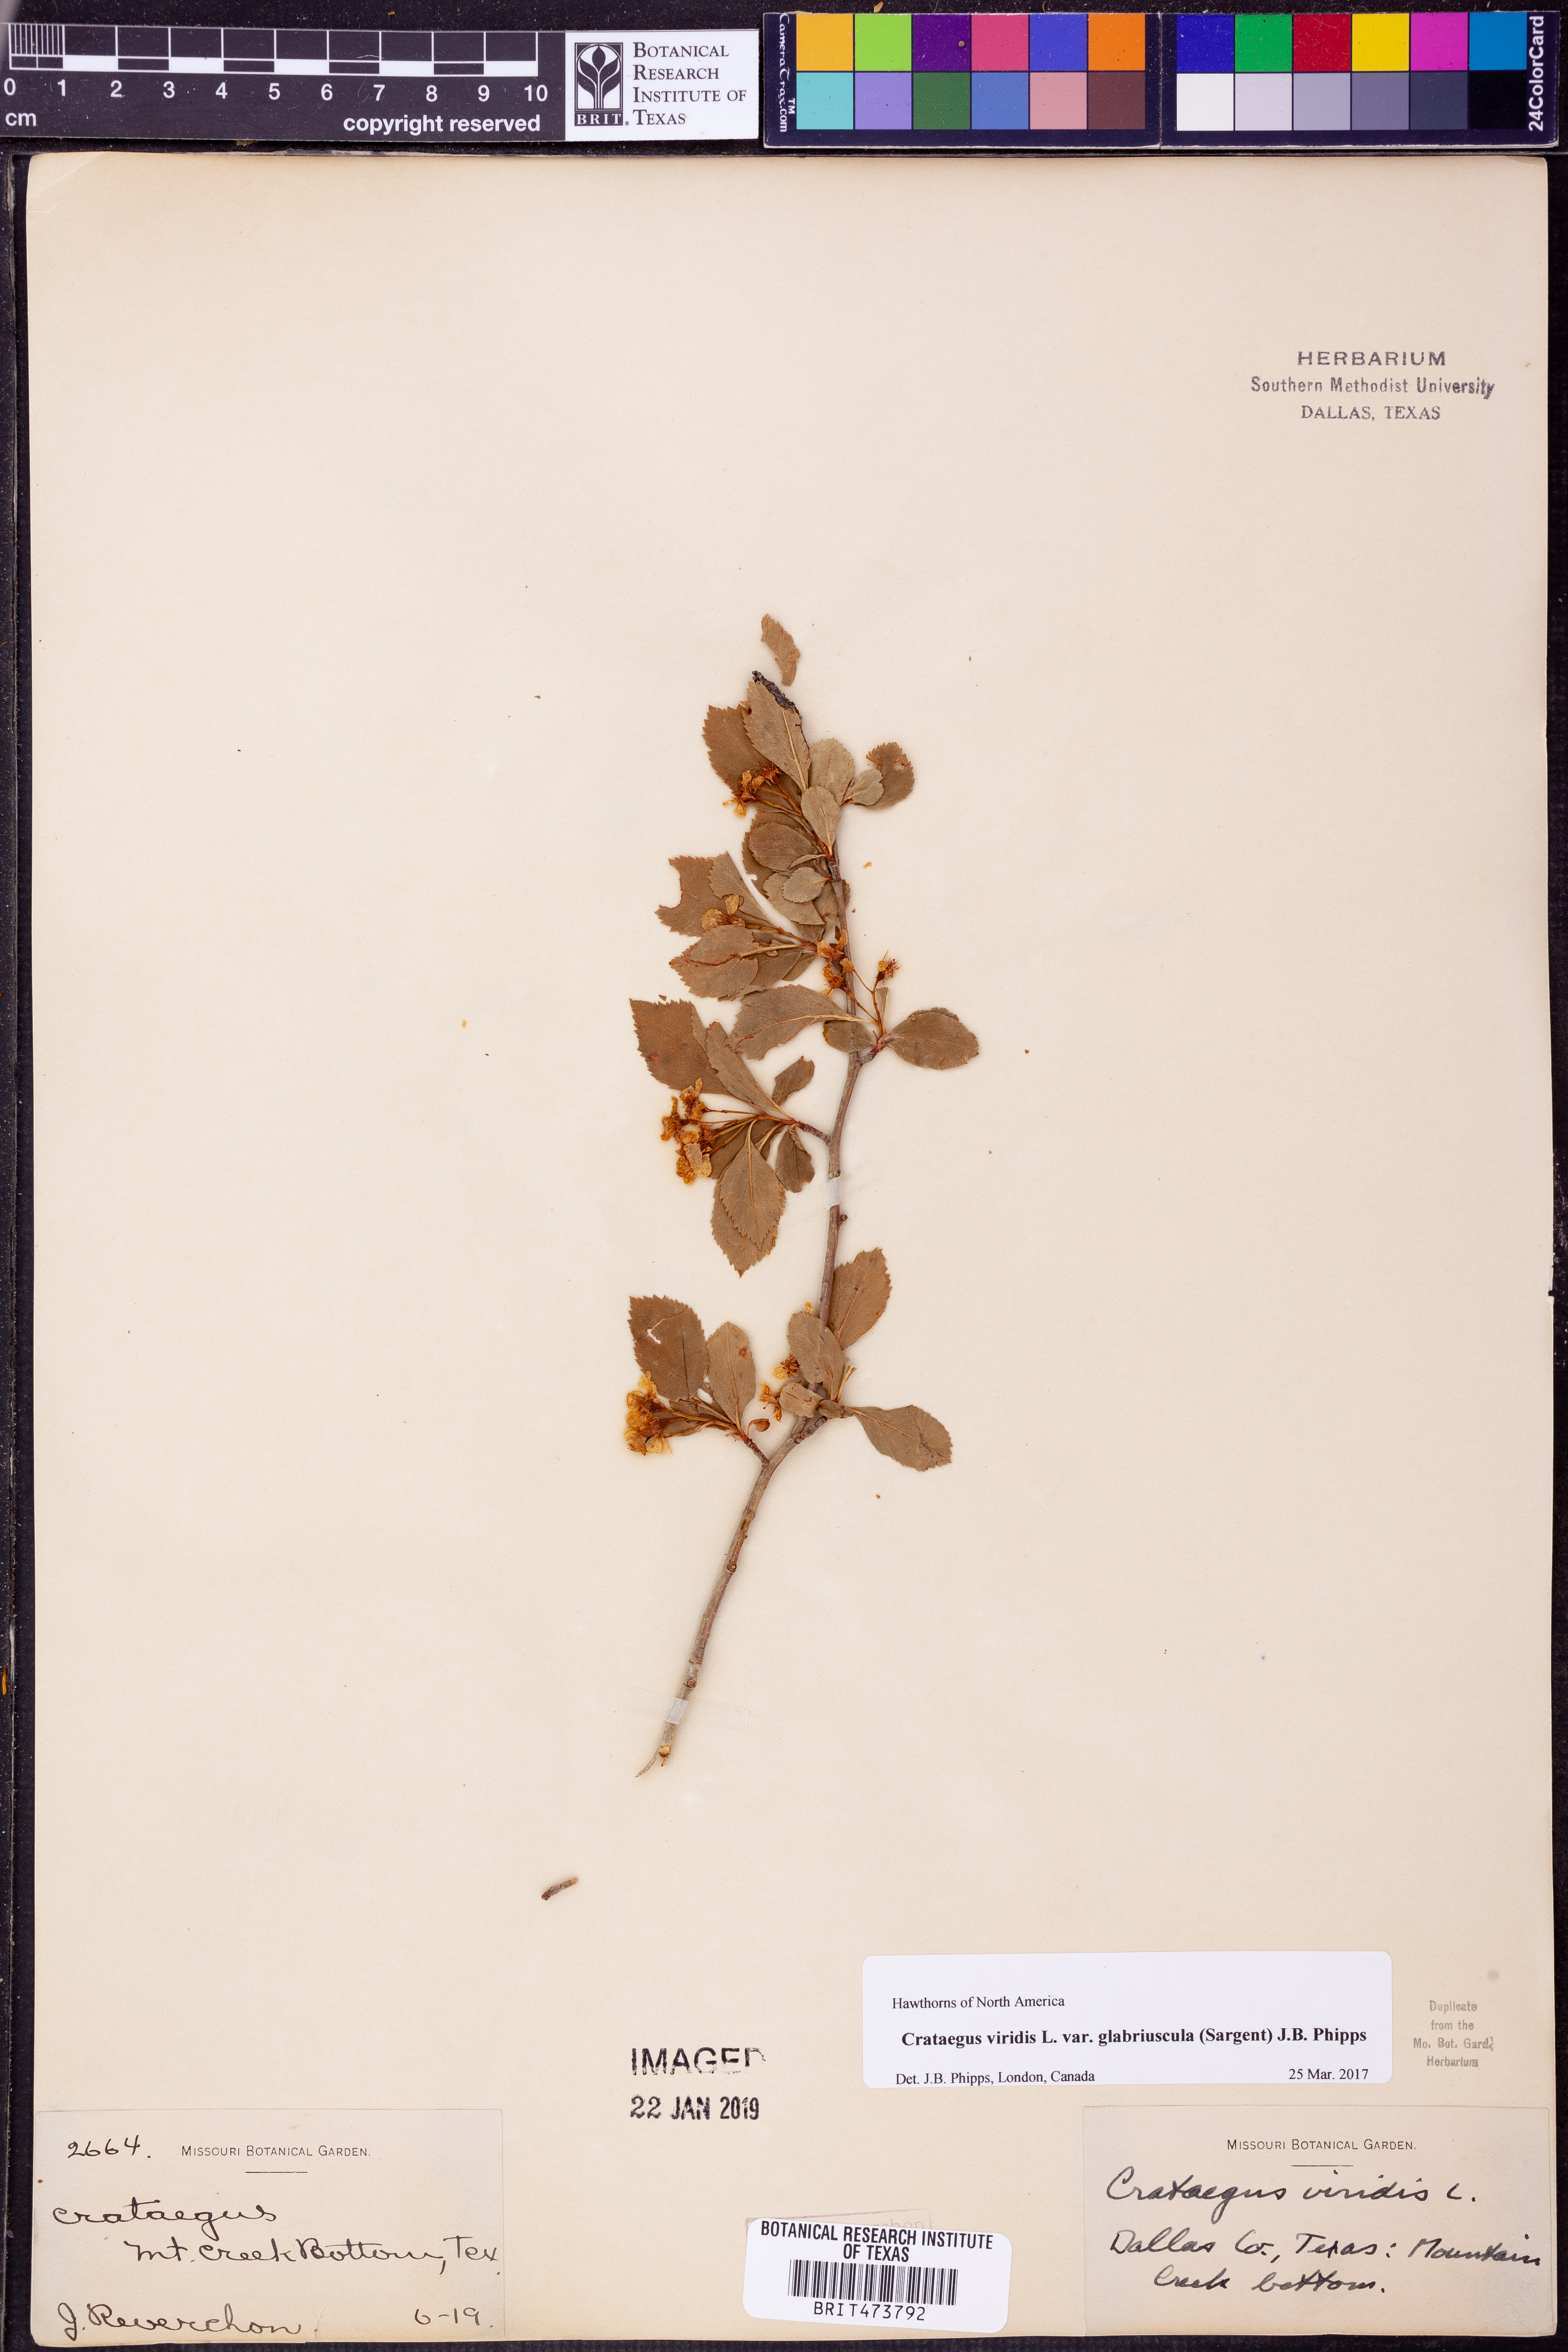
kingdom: Plantae
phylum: Tracheophyta
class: Magnoliopsida
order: Rosales
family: Rosaceae
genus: Crataegus
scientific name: Crataegus viridis
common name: Southernthorn
